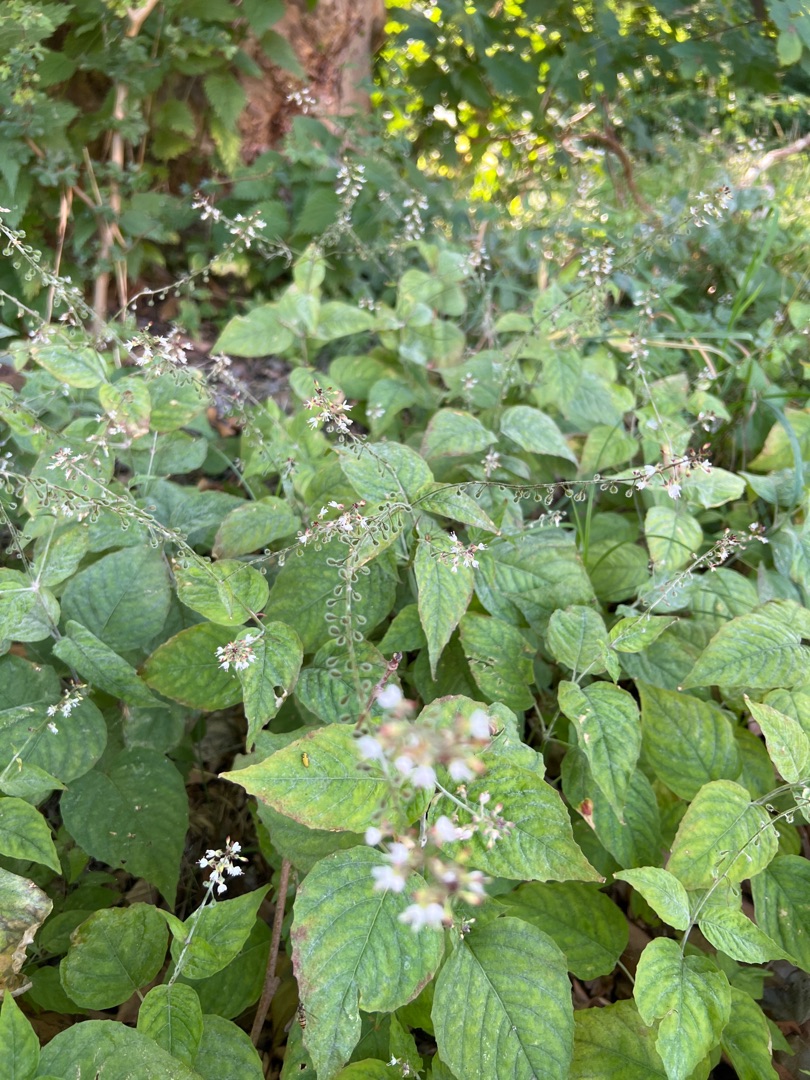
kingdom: Plantae
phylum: Tracheophyta
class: Magnoliopsida
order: Myrtales
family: Onagraceae
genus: Circaea
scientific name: Circaea lutetiana
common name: Dunet steffensurt
